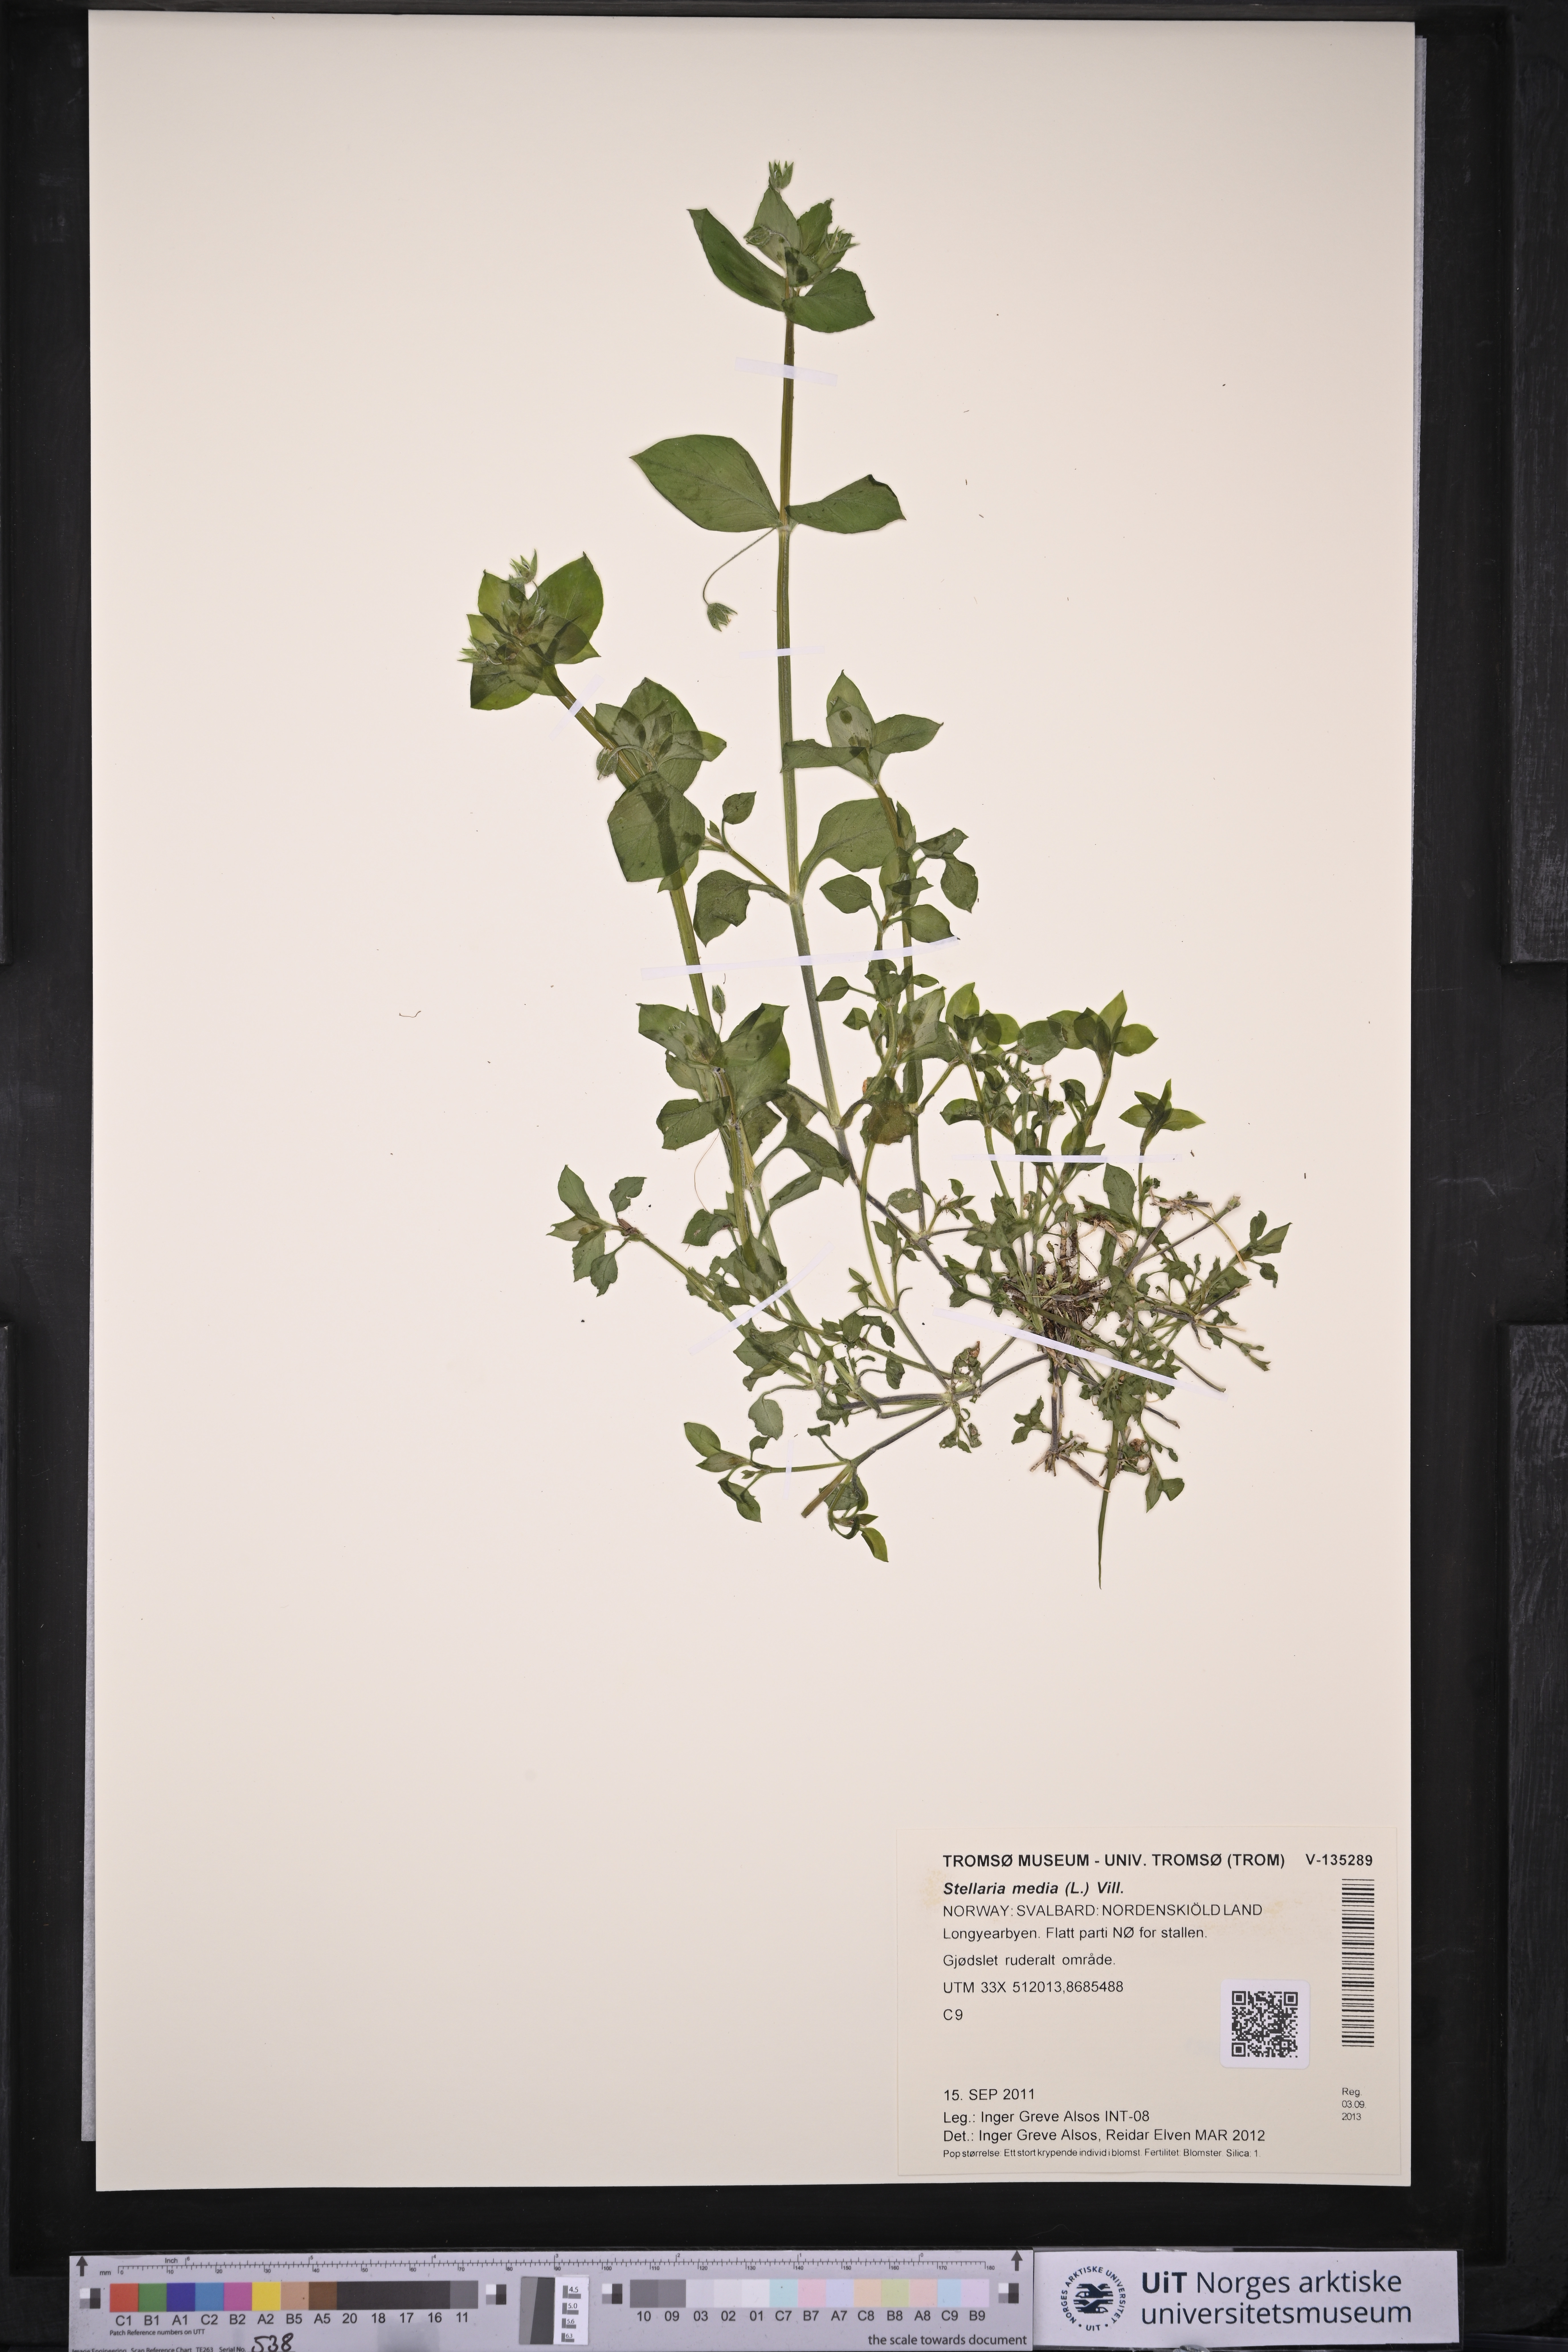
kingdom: Plantae
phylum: Tracheophyta
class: Magnoliopsida
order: Caryophyllales
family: Caryophyllaceae
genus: Stellaria
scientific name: Stellaria media
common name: Common chickweed
